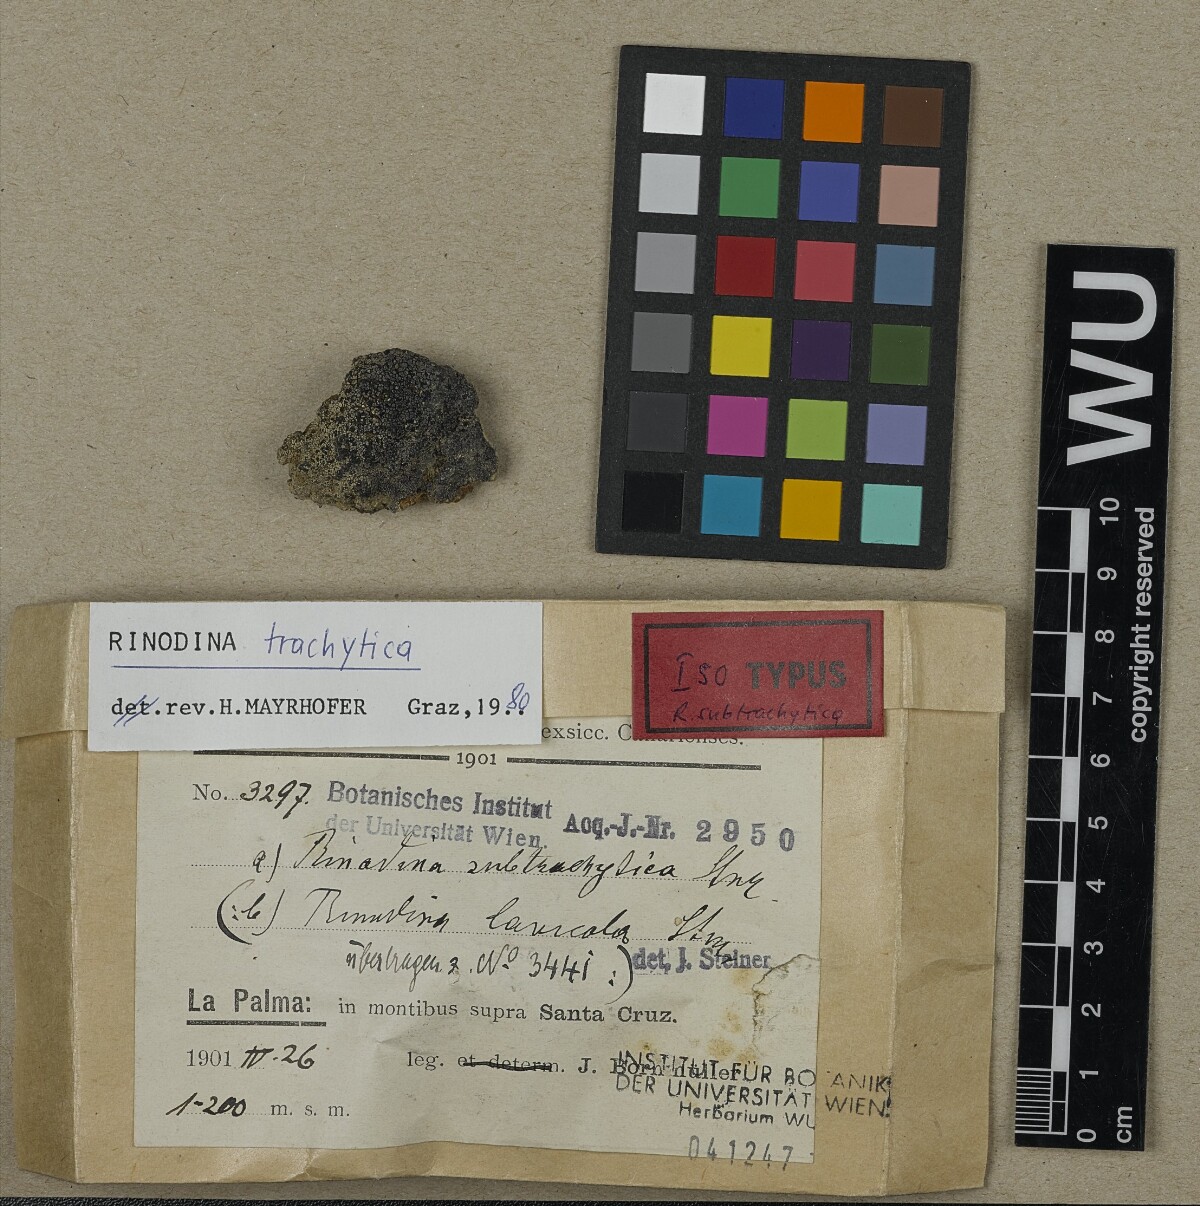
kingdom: Fungi
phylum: Ascomycota
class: Lecanoromycetes
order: Caliciales
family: Physciaceae
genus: Rinodina
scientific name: Rinodina lecanorina
